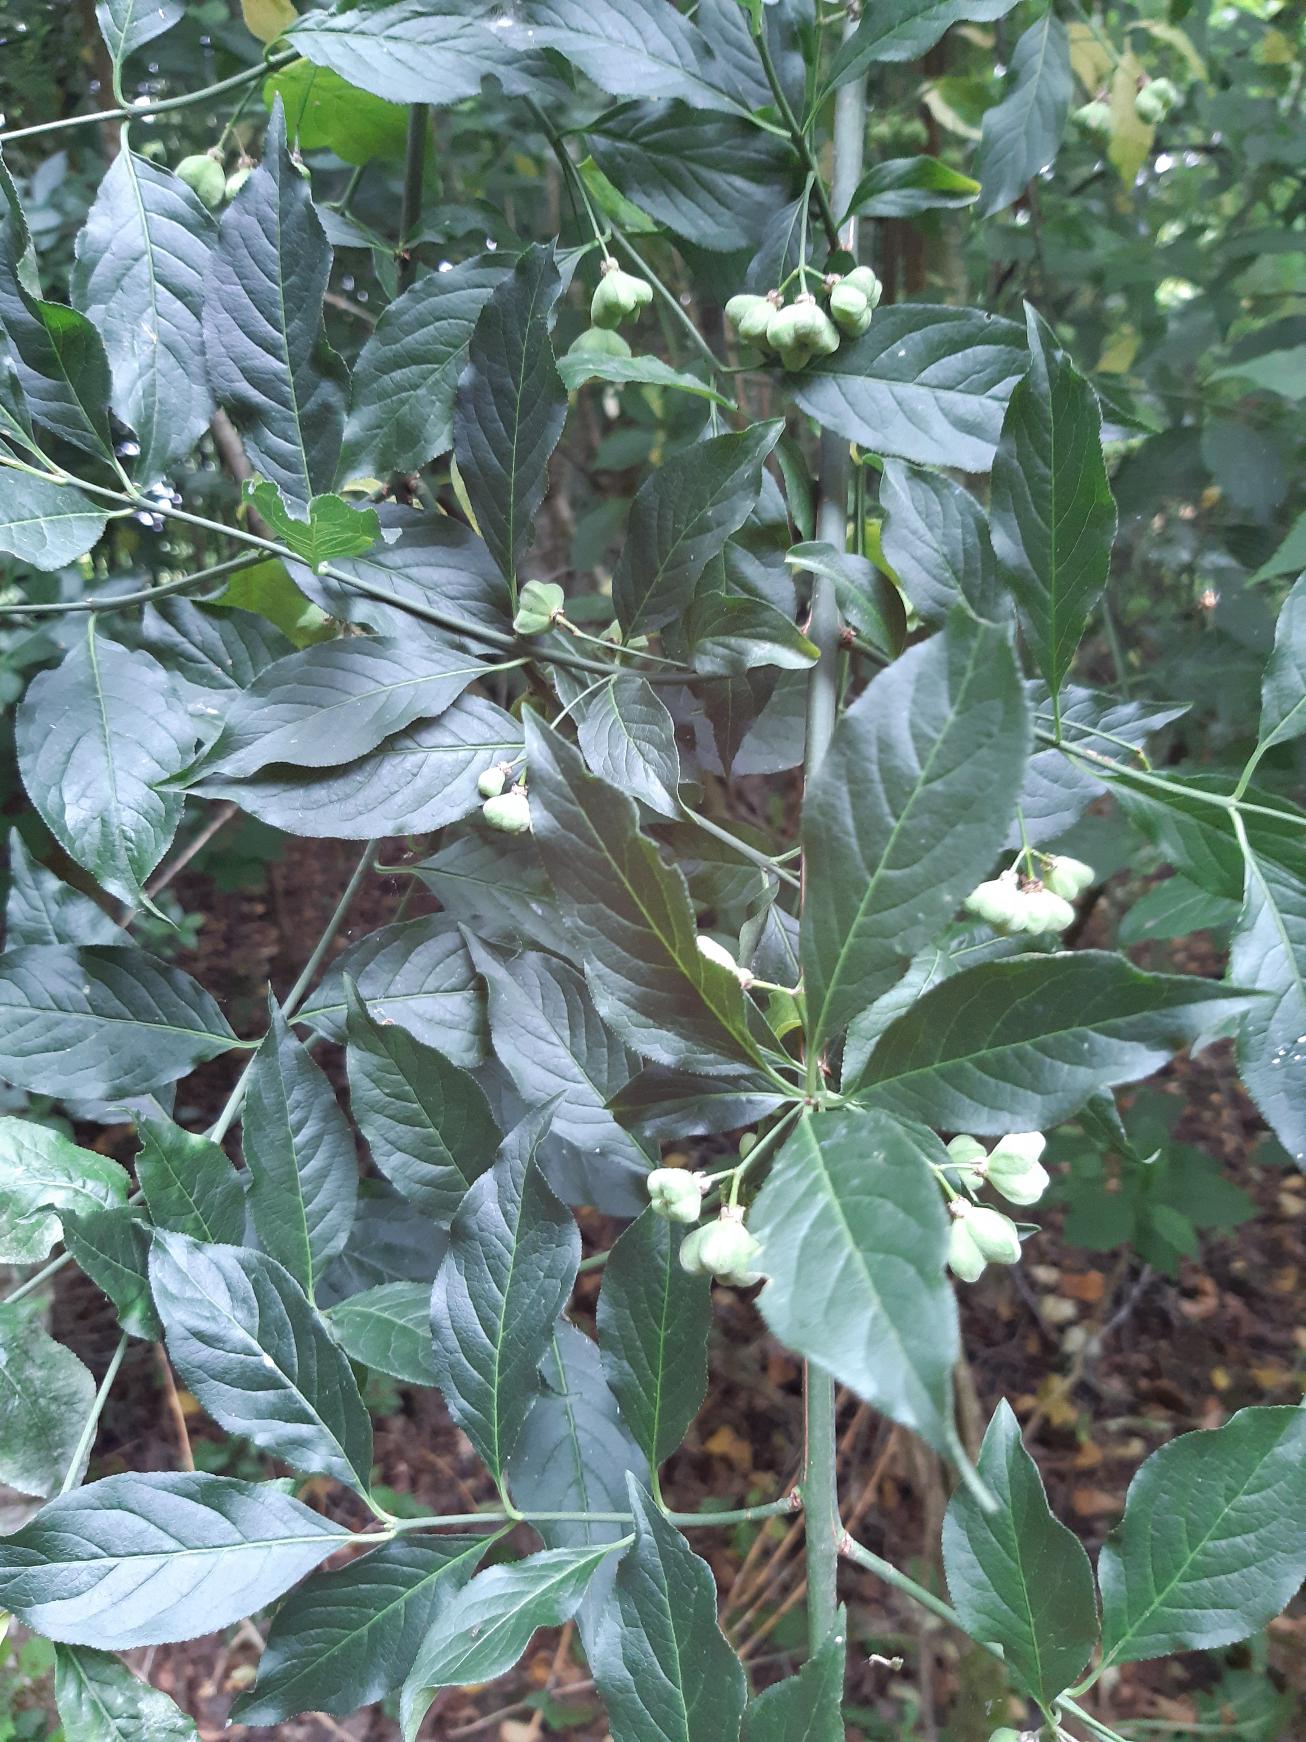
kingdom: Plantae
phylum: Tracheophyta
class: Magnoliopsida
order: Celastrales
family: Celastraceae
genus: Euonymus
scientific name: Euonymus europaeus
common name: Benved
